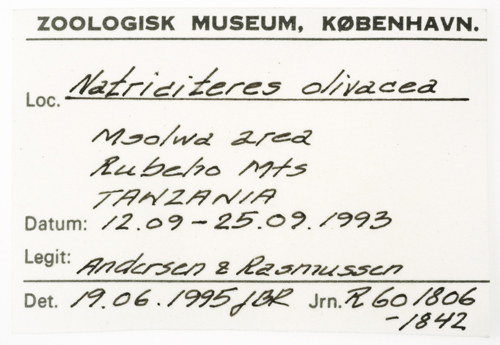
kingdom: Animalia
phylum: Chordata
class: Squamata
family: Colubridae
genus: Natriciteres
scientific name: Natriciteres olivacea
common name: Olive marsh snake
